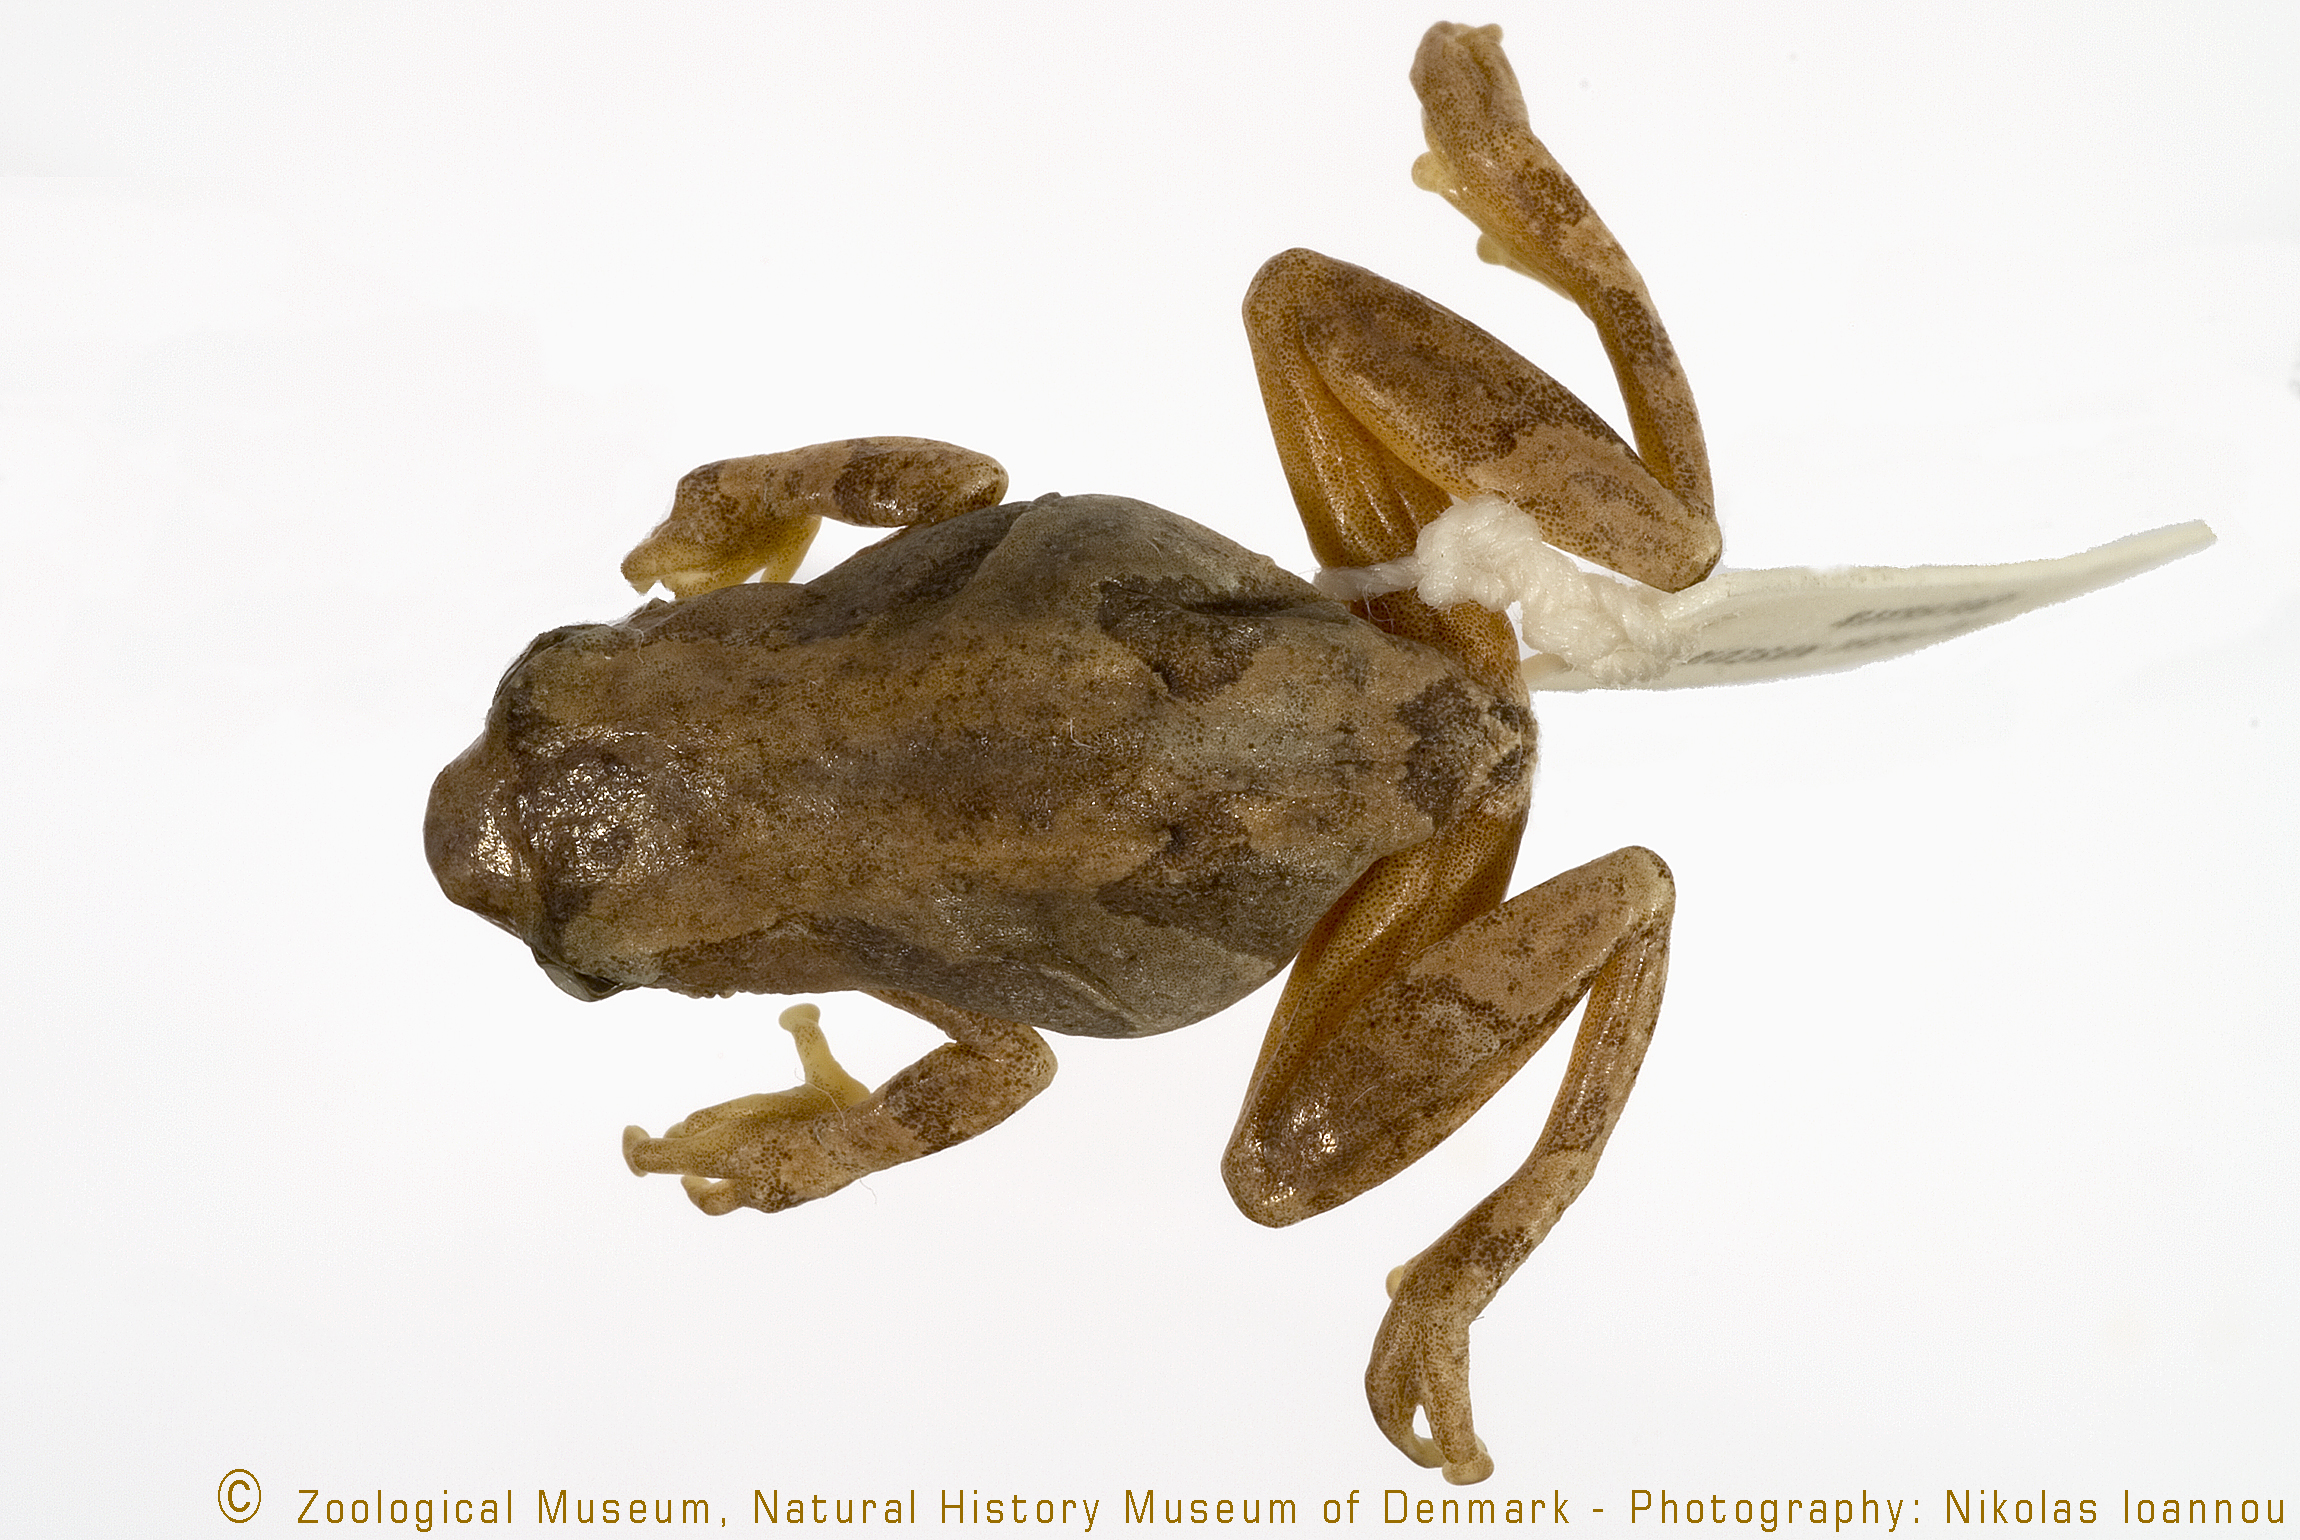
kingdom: Animalia
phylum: Chordata
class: Amphibia
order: Anura
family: Hyperoliidae
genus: Hyperolius
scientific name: Hyperolius mariae
